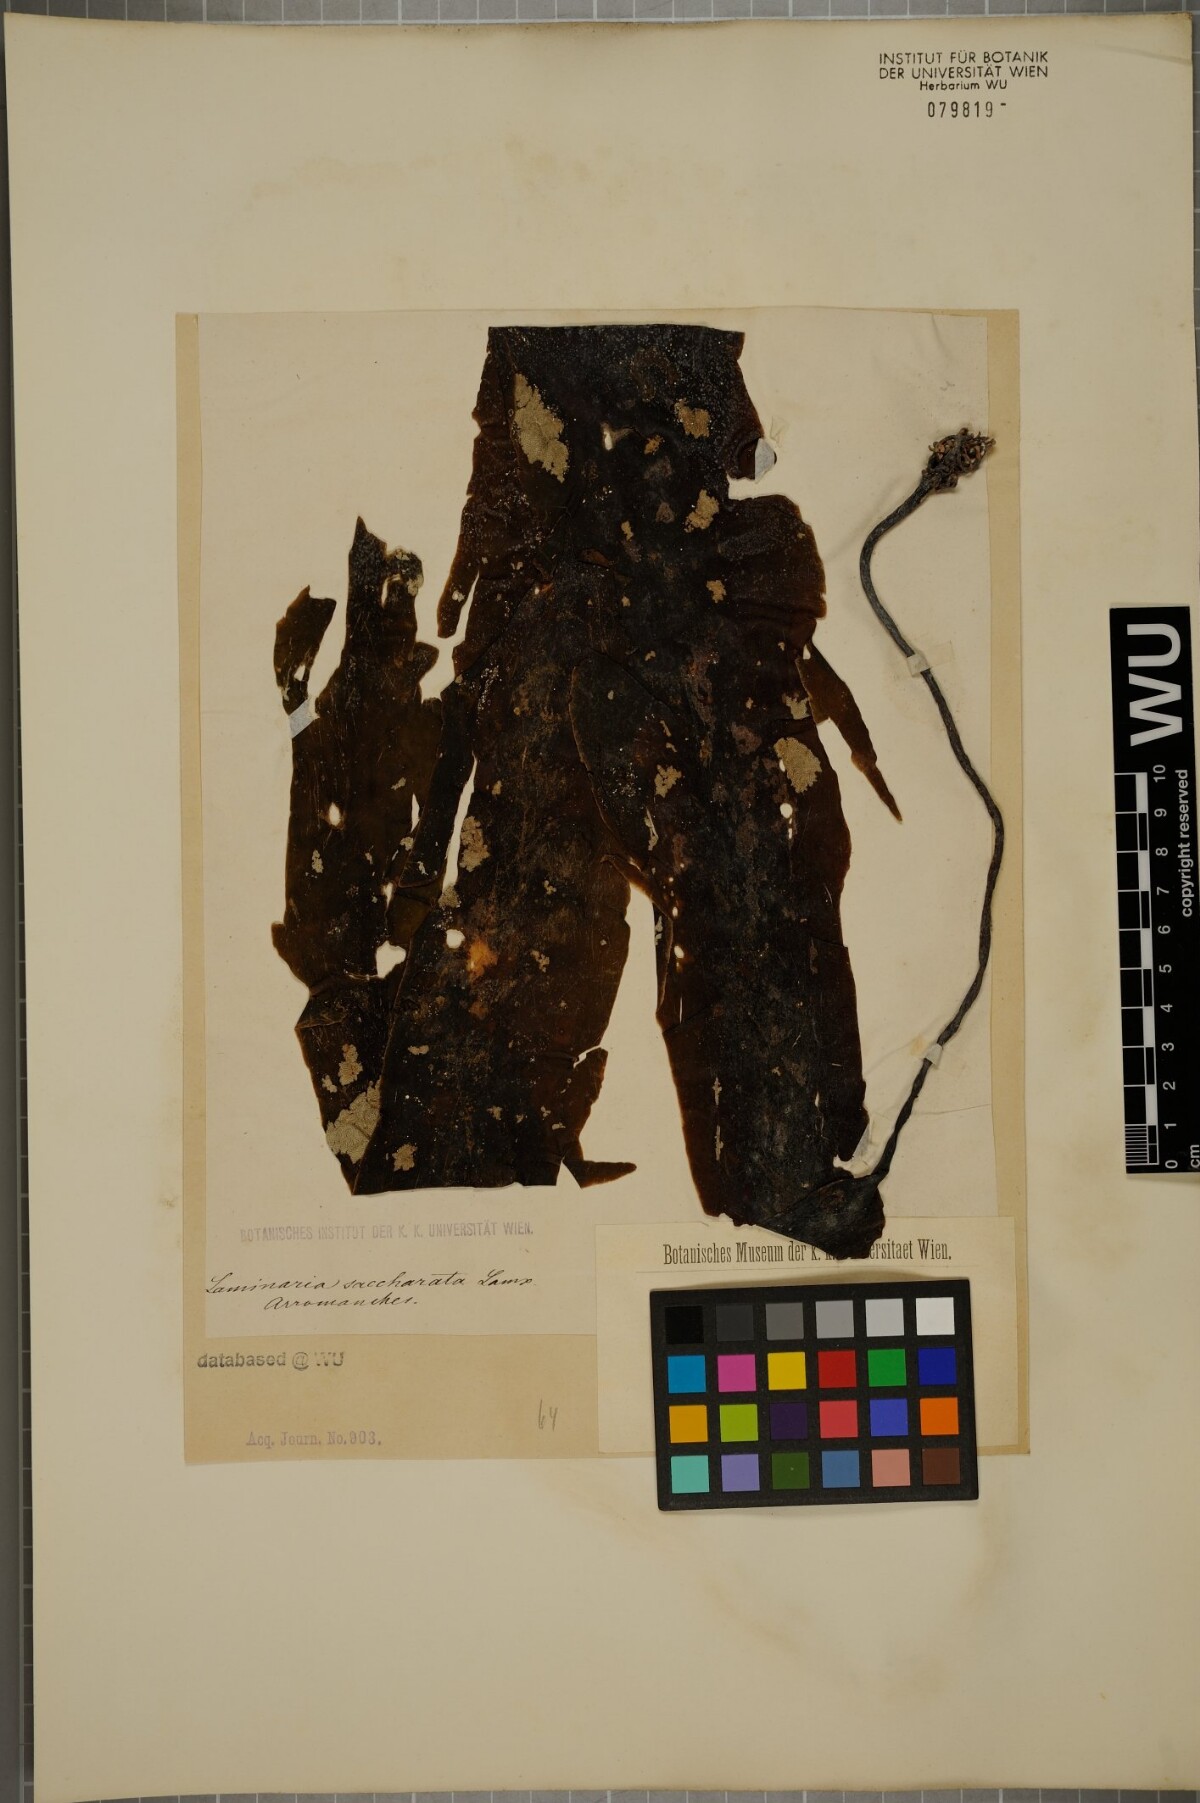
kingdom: Chromista
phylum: Ochrophyta
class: Phaeophyceae
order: Laminariales
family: Laminariaceae
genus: Saccharina
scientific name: Saccharina latissima
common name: Poor man's weather glass
